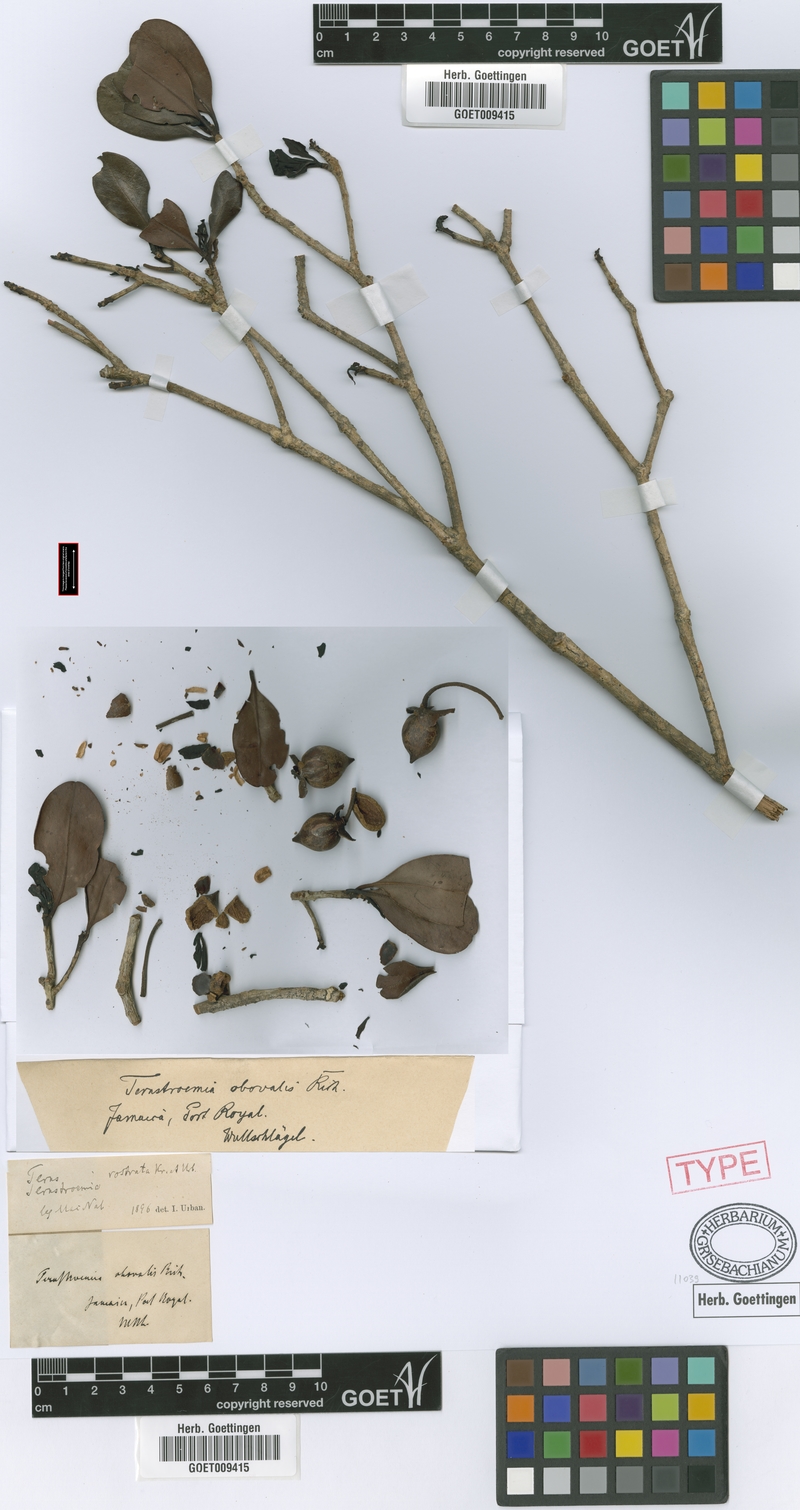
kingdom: Plantae
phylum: Tracheophyta
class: Magnoliopsida
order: Ericales
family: Pentaphylacaceae
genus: Ternstroemia
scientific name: Ternstroemia rostrata
